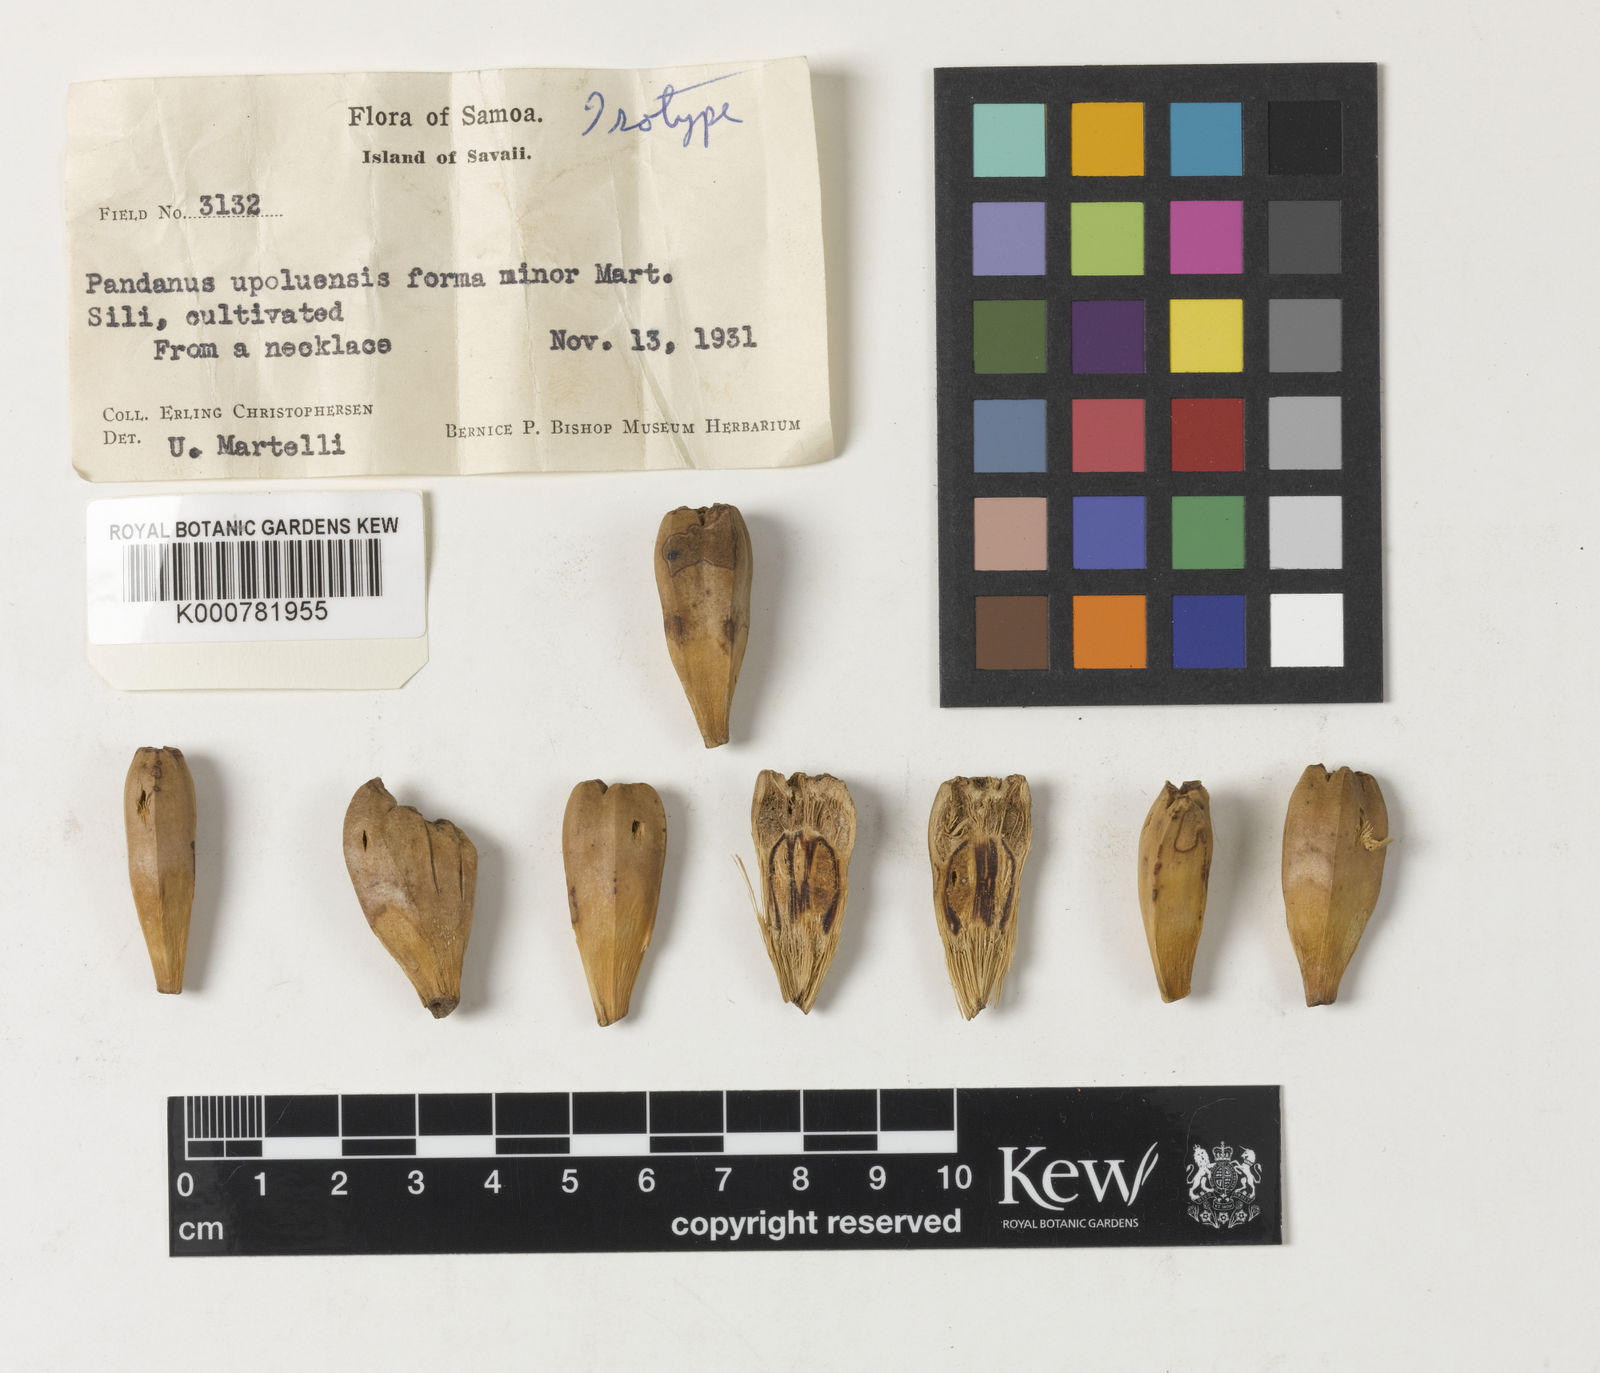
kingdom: Plantae
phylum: Tracheophyta
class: Liliopsida
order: Pandanales
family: Pandanaceae
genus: Pandanus
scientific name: Pandanus tectorius
